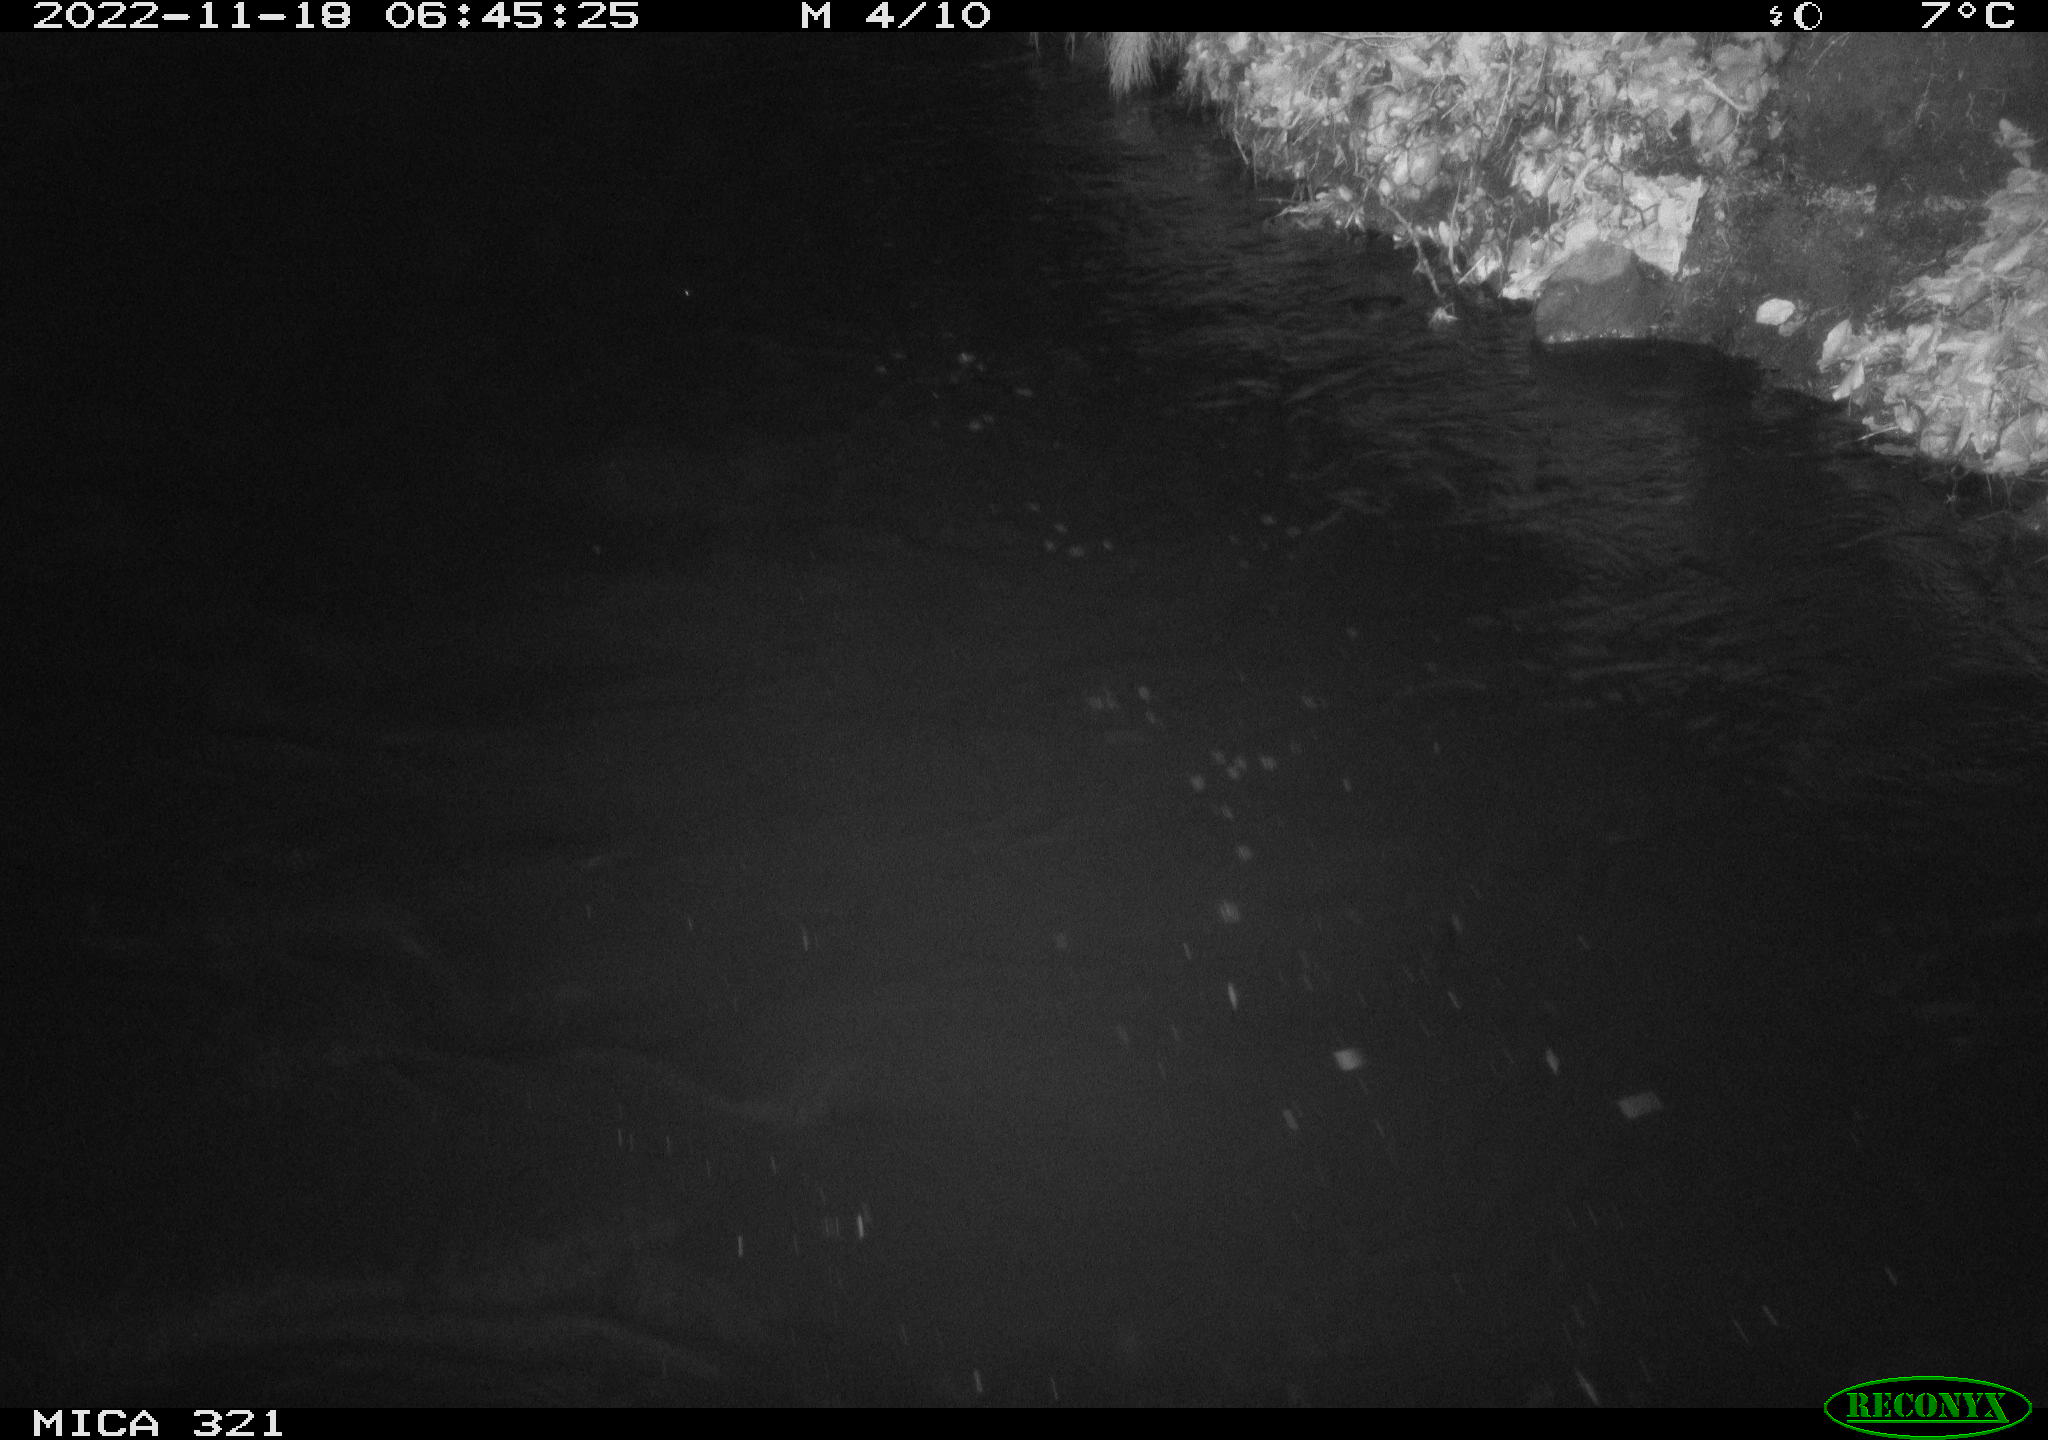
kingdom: Animalia
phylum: Chordata
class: Mammalia
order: Rodentia
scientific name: Rodentia
